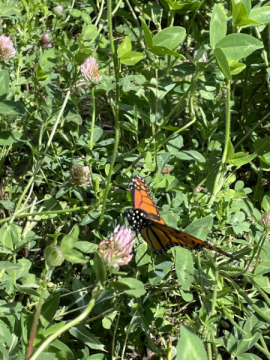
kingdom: Animalia
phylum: Arthropoda
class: Insecta
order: Lepidoptera
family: Nymphalidae
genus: Danaus
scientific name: Danaus plexippus
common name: Monarch
